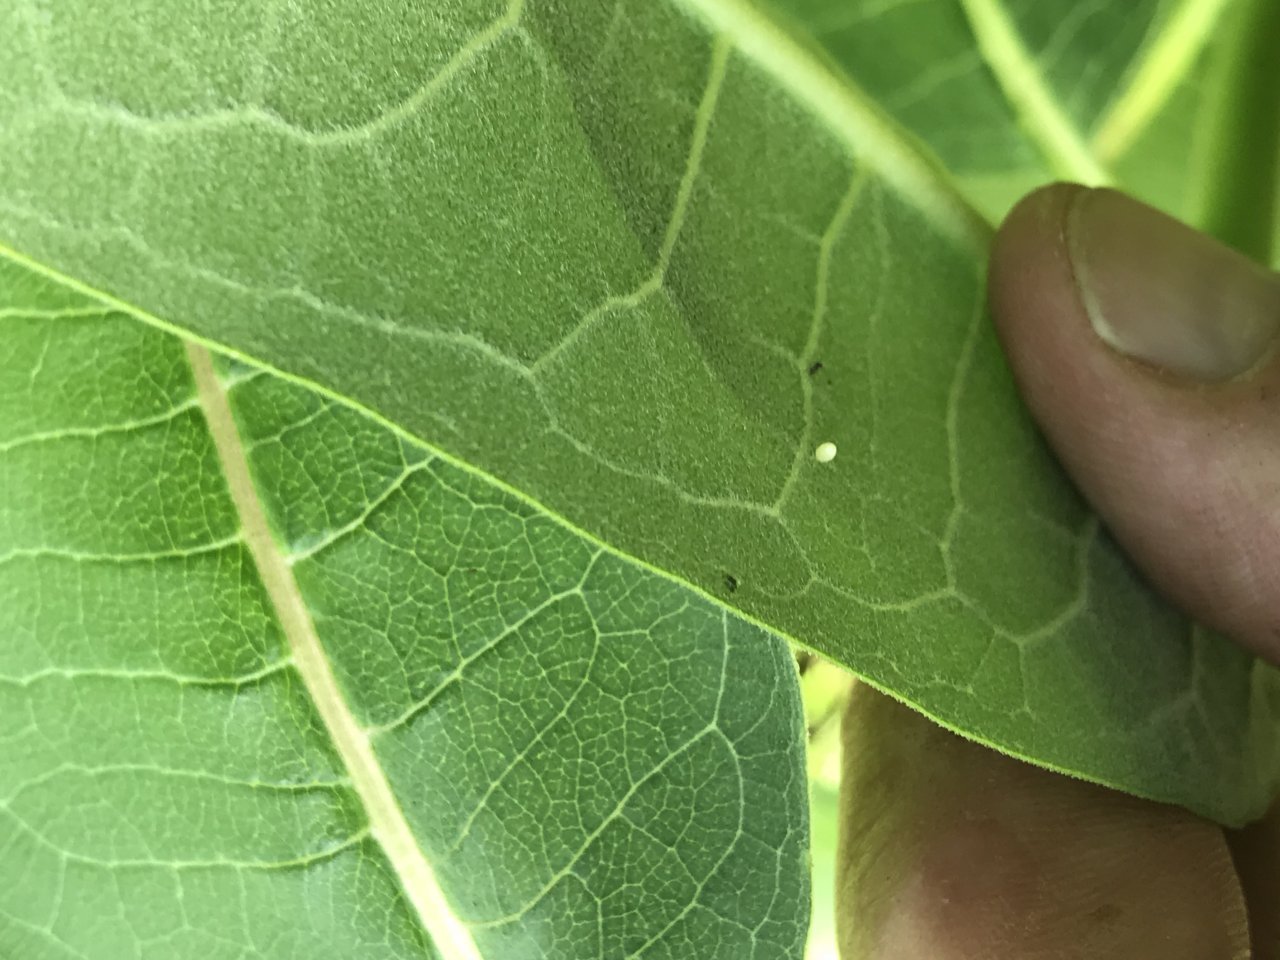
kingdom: Animalia
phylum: Arthropoda
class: Insecta
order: Lepidoptera
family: Nymphalidae
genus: Danaus
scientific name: Danaus plexippus
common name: Monarch
